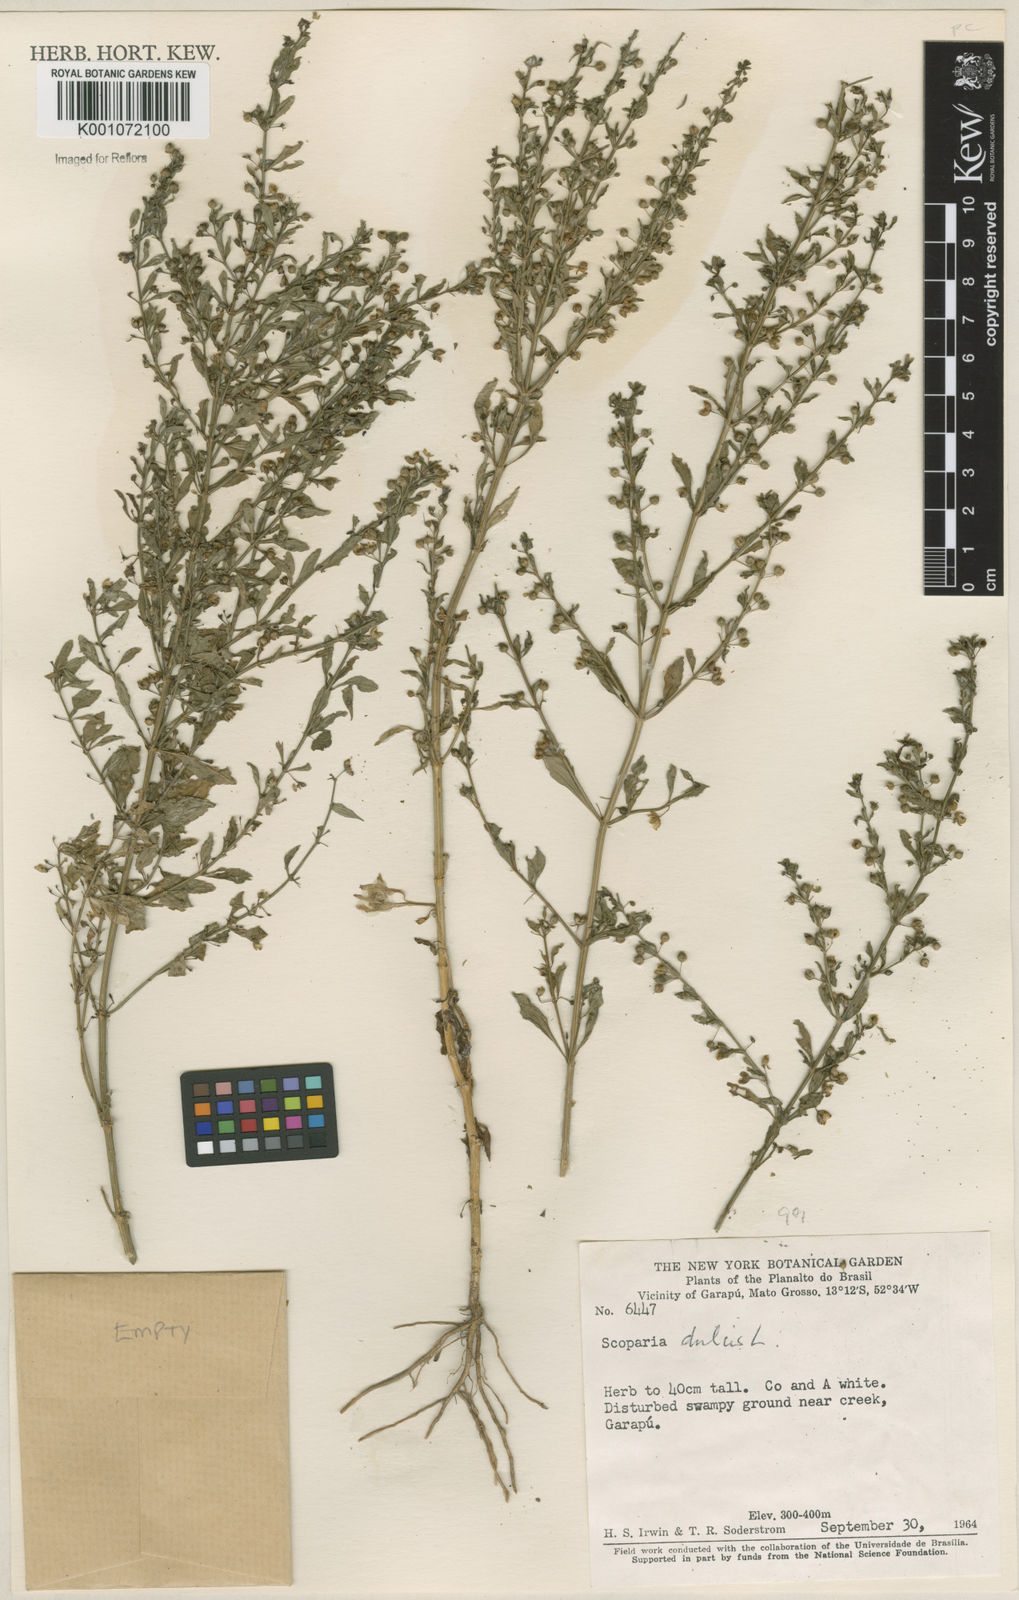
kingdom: Plantae
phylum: Tracheophyta
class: Magnoliopsida
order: Lamiales
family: Plantaginaceae
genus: Scoparia
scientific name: Scoparia dulcis
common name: Scoparia-weed
